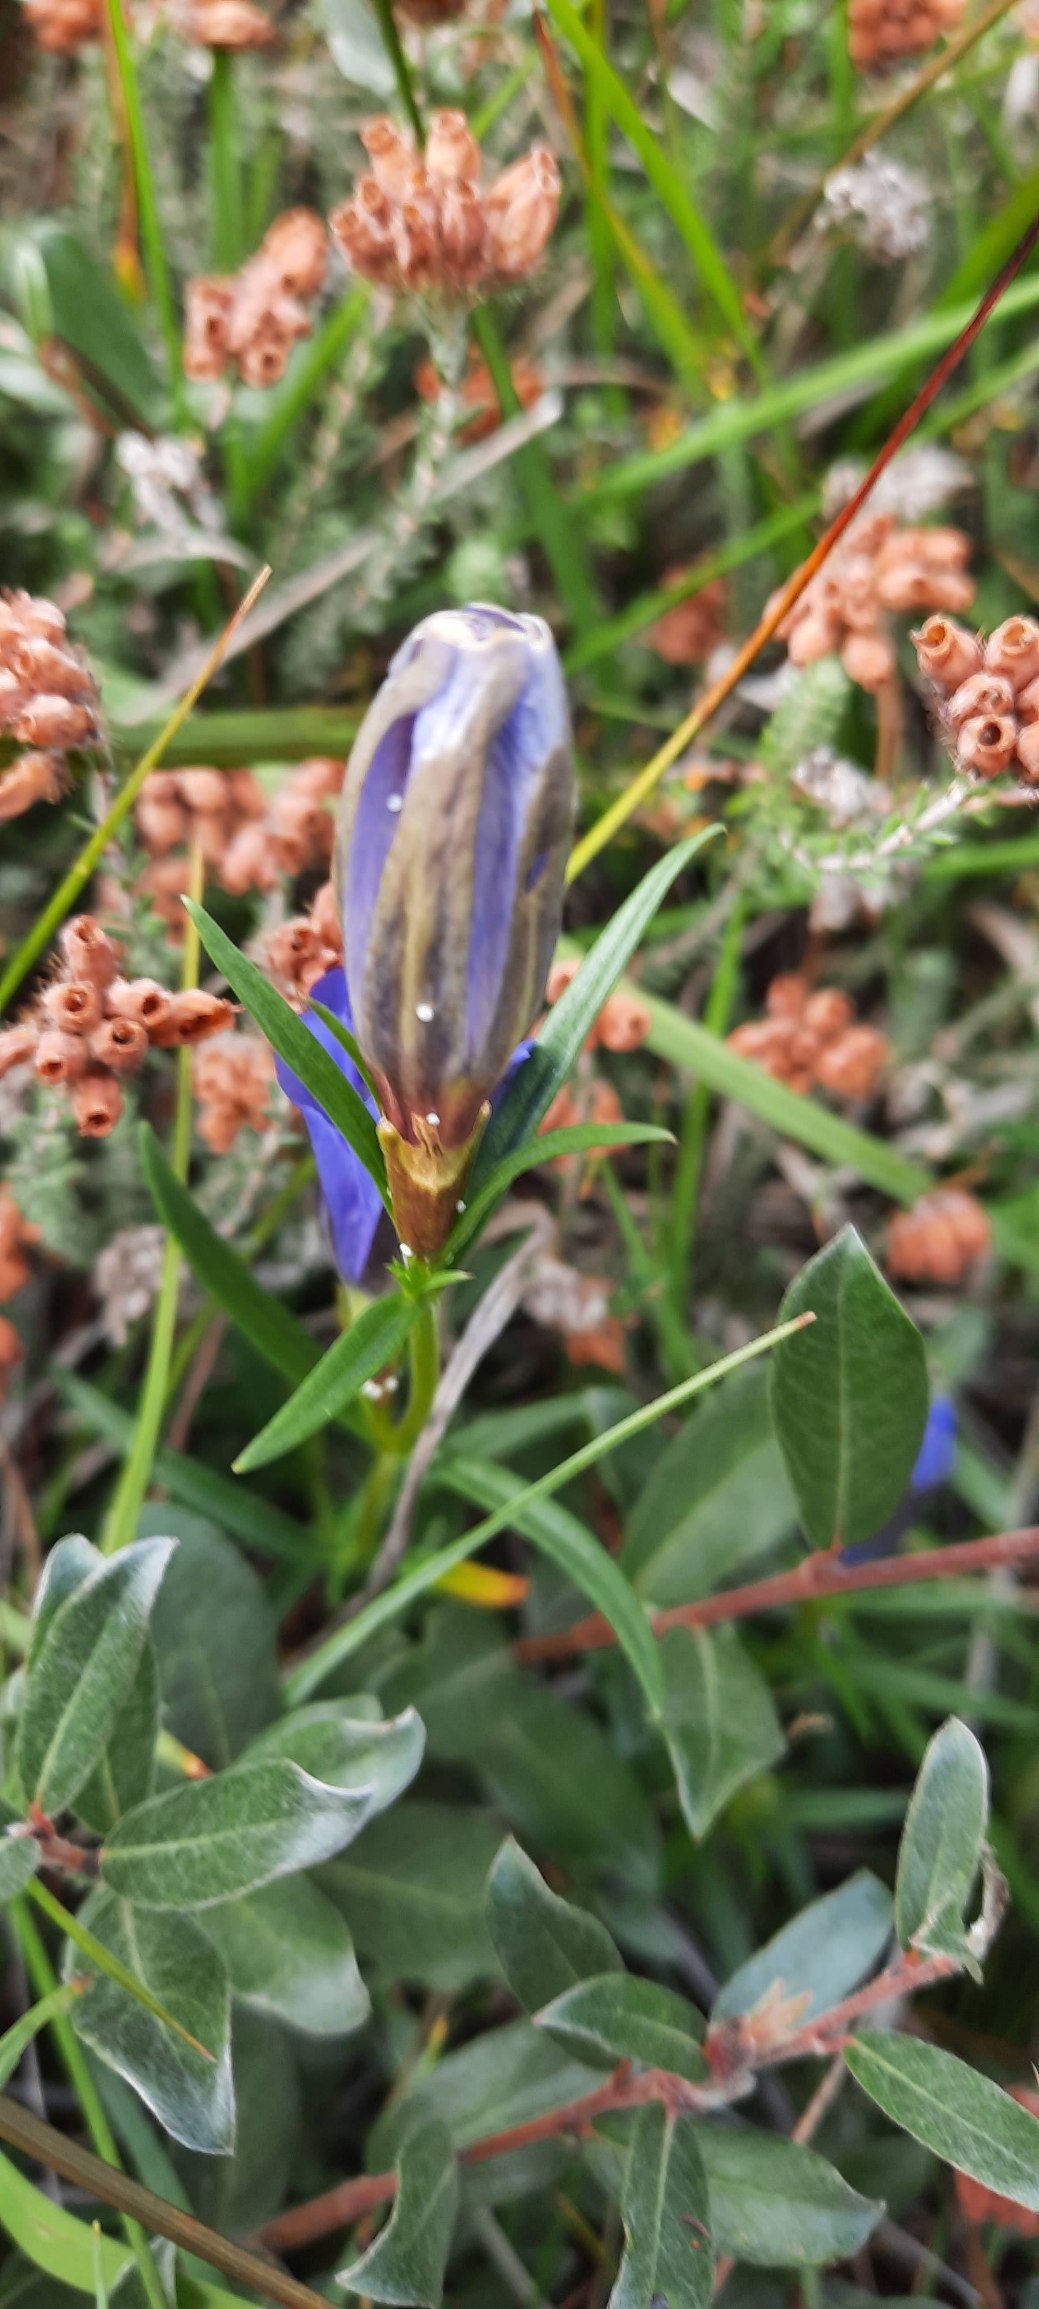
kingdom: Plantae
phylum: Tracheophyta
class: Magnoliopsida
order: Gentianales
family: Gentianaceae
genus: Gentiana
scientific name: Gentiana pneumonanthe
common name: Klokke-ensian
